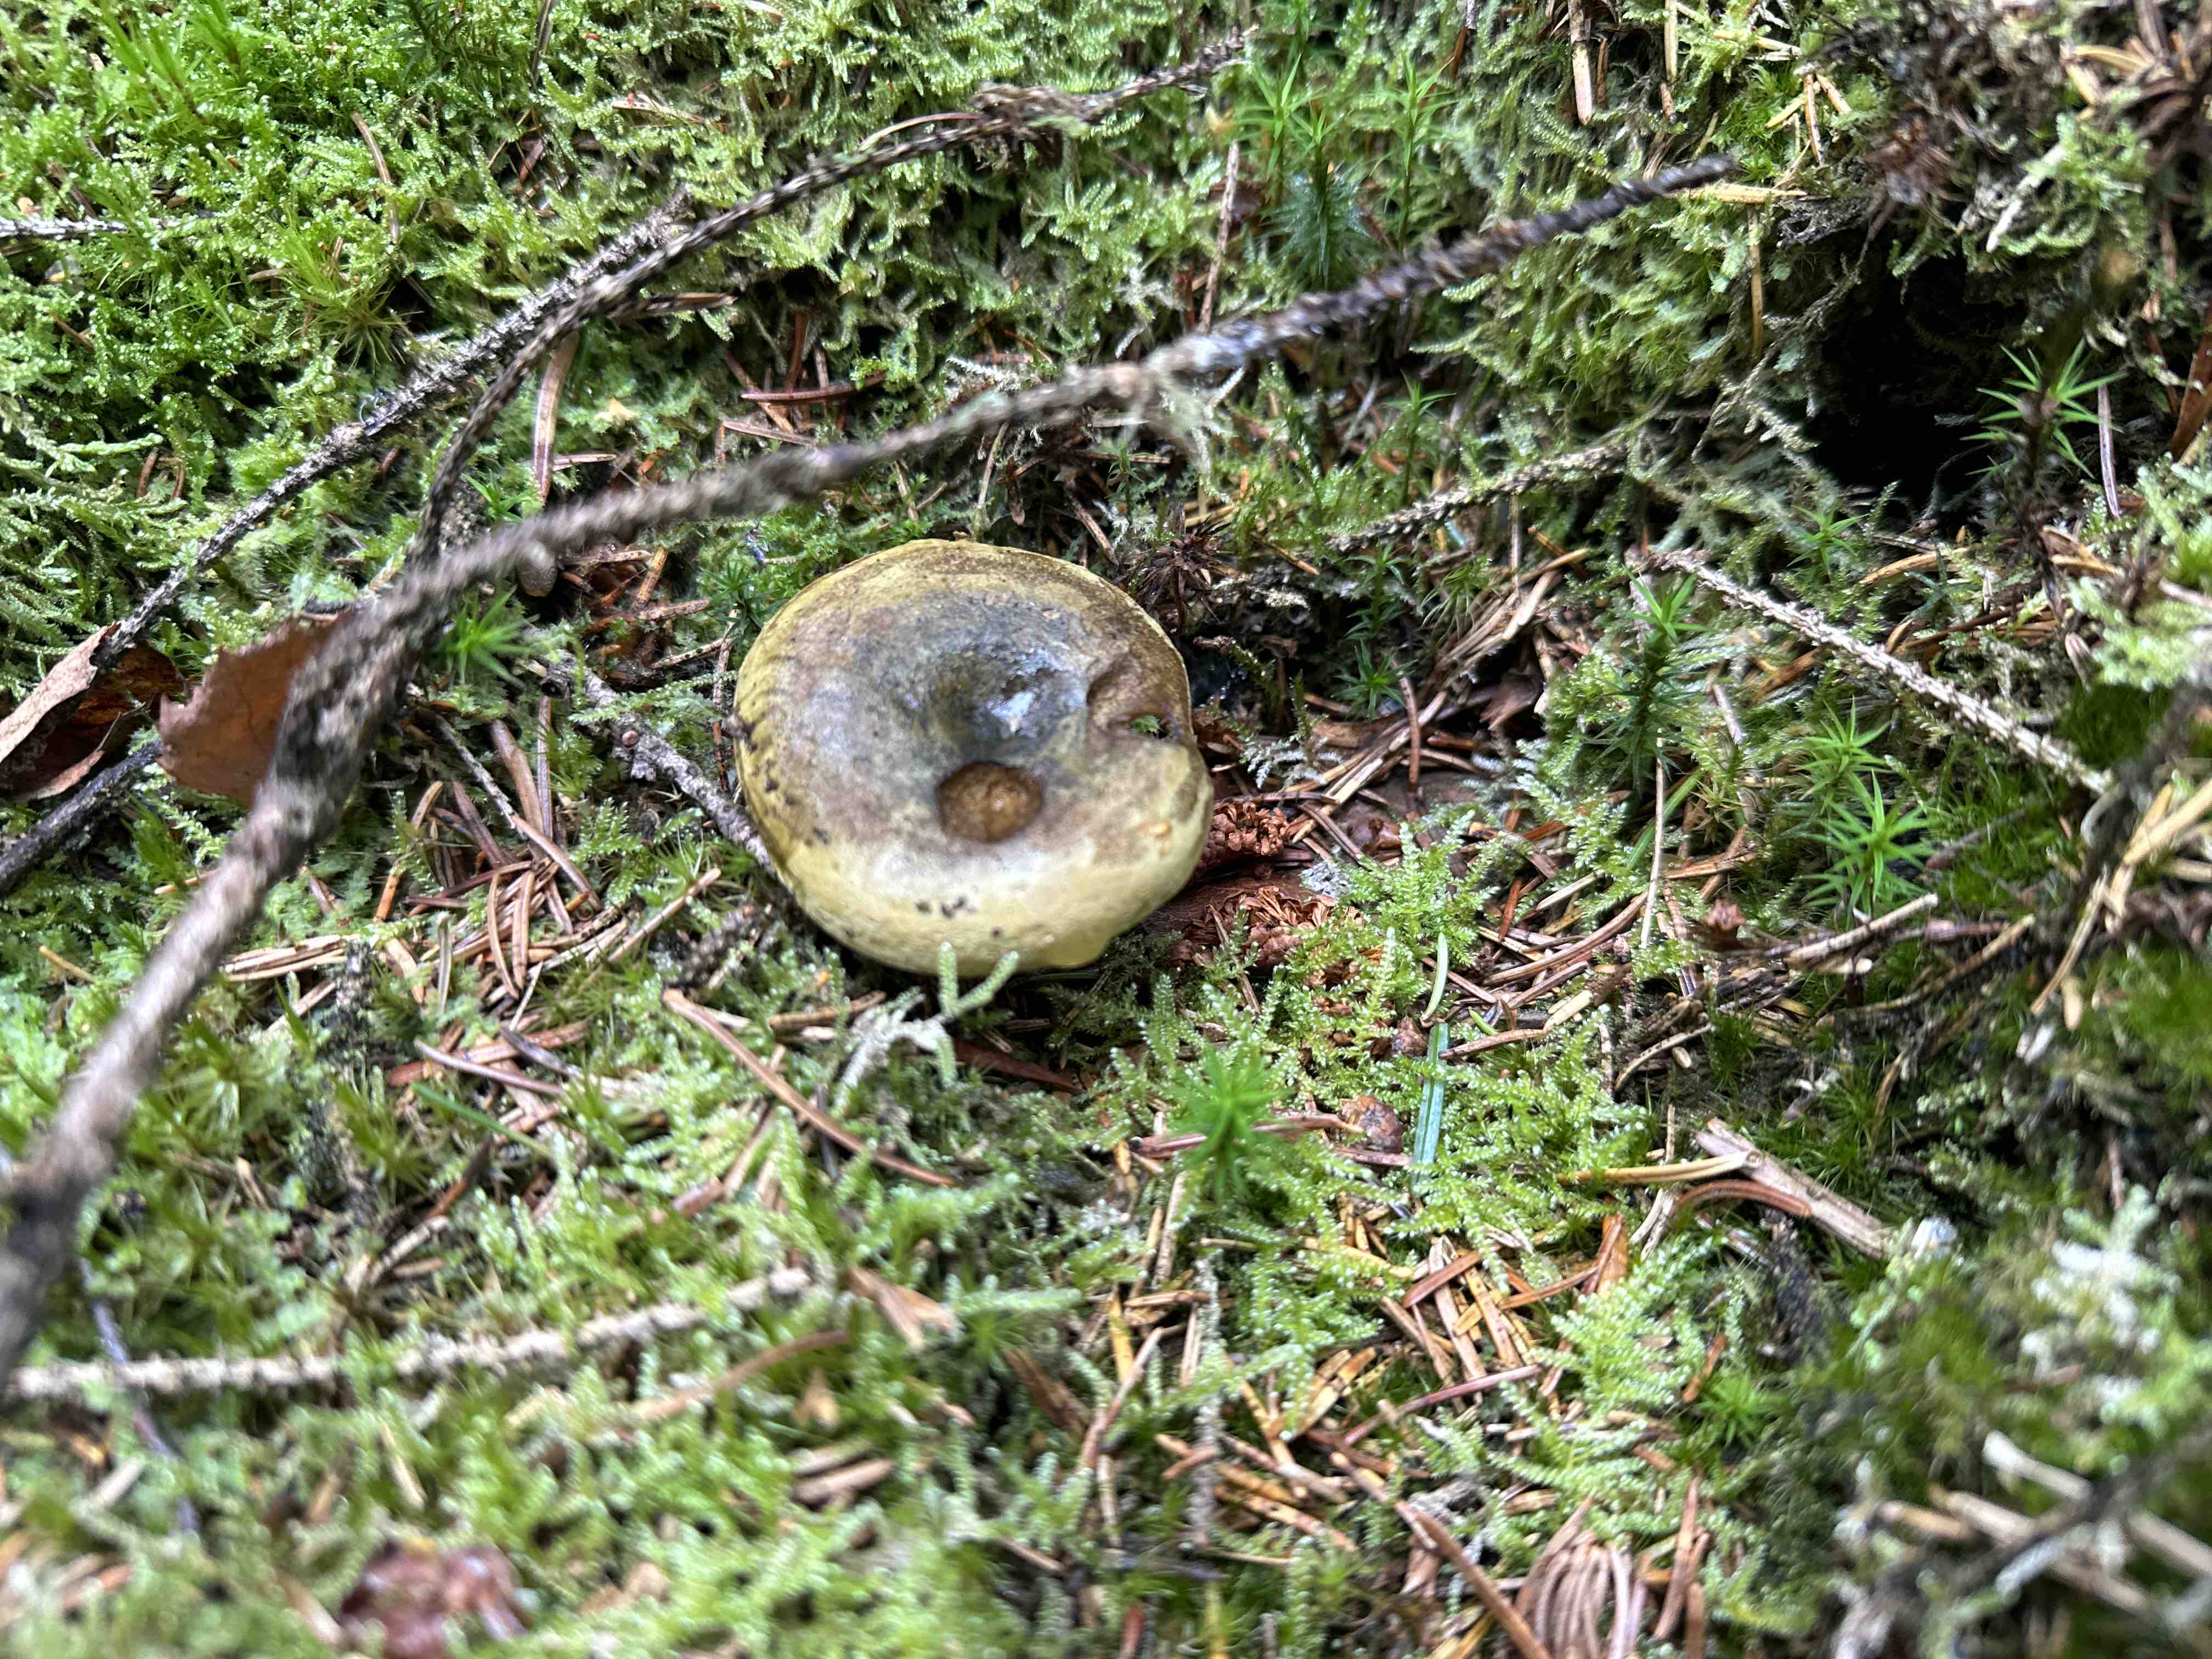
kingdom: Fungi
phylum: Basidiomycota
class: Agaricomycetes
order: Russulales
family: Russulaceae
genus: Lactarius
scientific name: Lactarius necator
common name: manddraber-mælkehat
